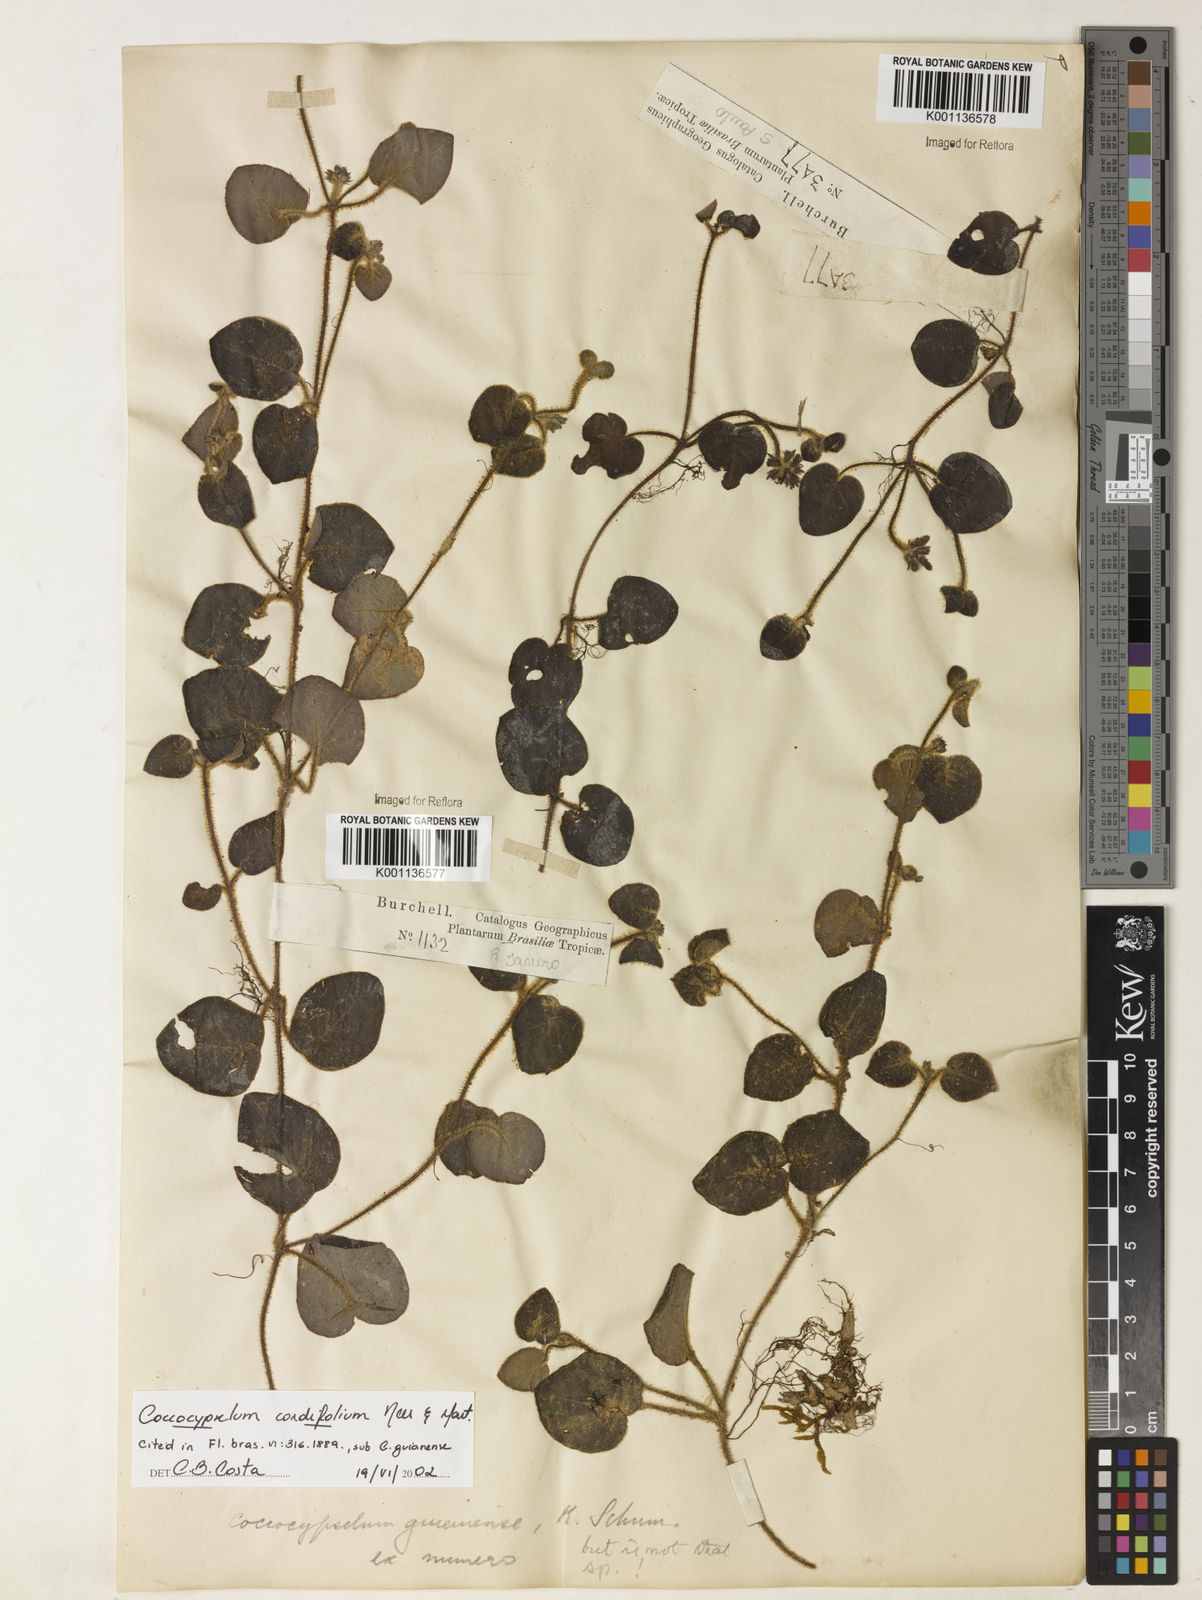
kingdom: Plantae
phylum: Tracheophyta
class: Magnoliopsida
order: Gentianales
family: Rubiaceae
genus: Coccocypselum
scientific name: Coccocypselum cordifolium
